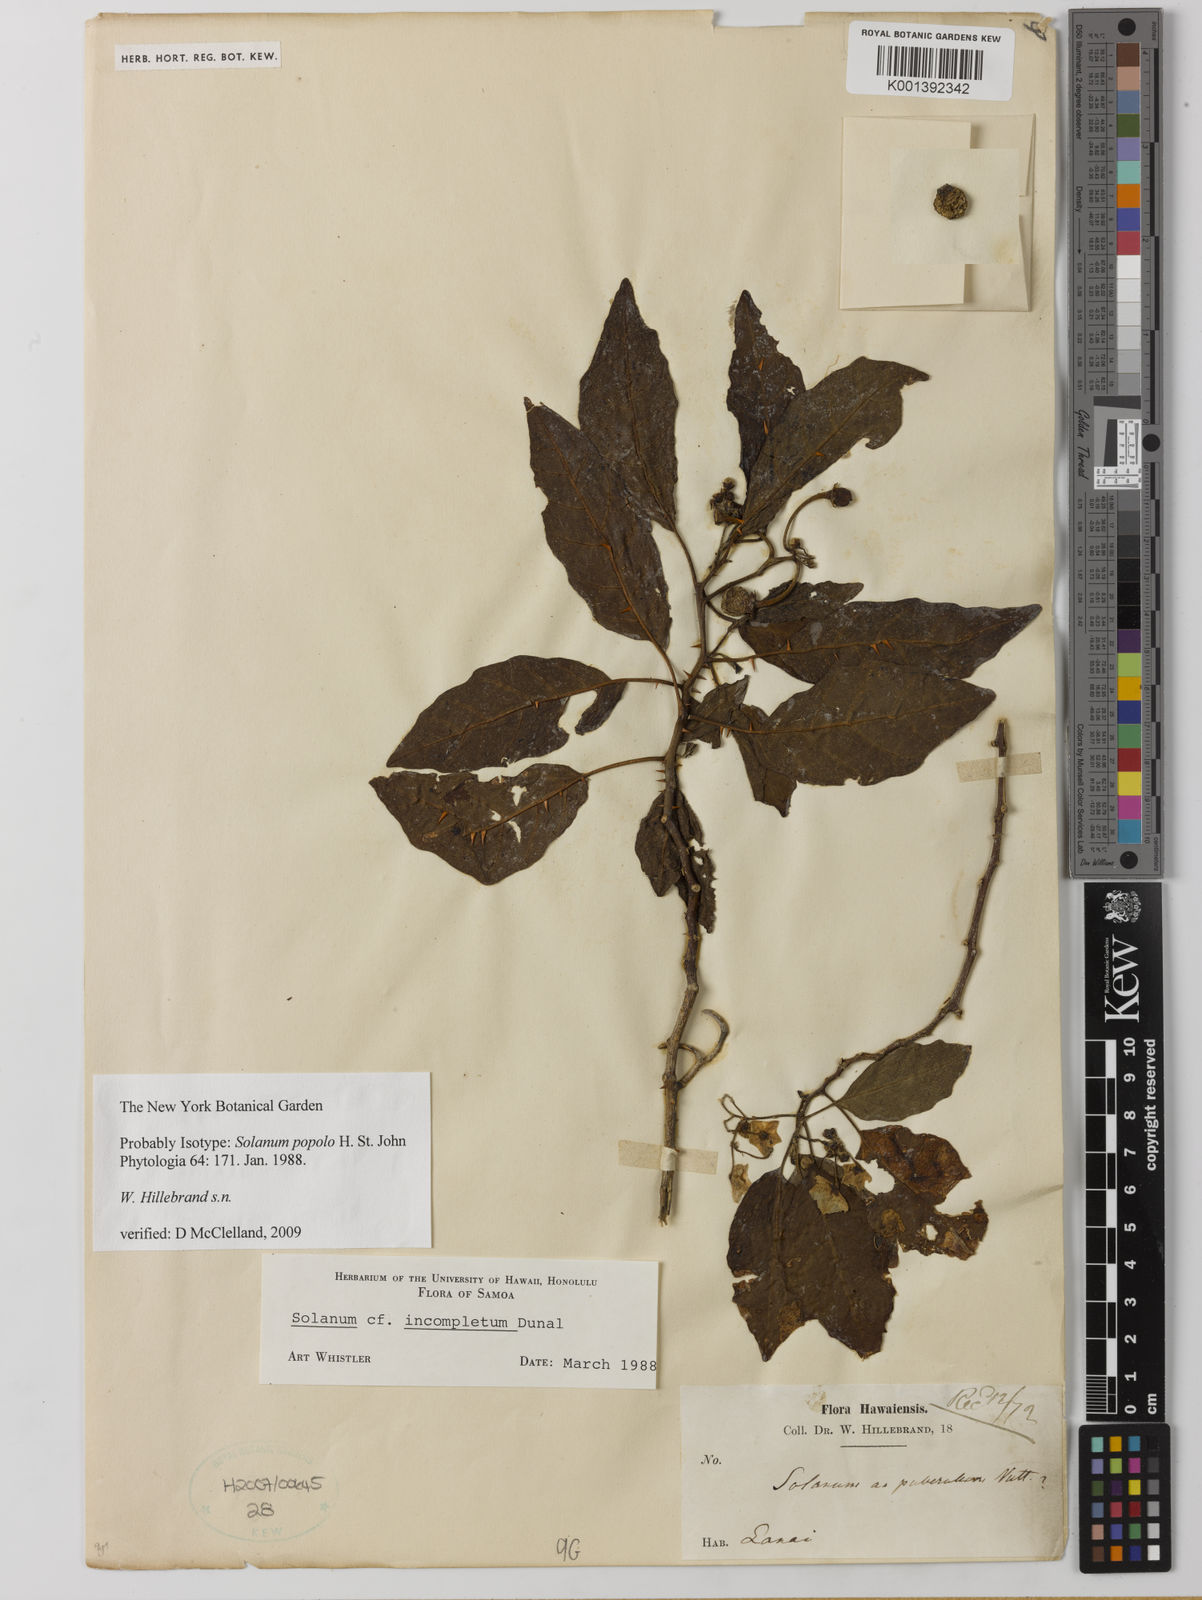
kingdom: Plantae
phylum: Tracheophyta
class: Magnoliopsida
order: Solanales
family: Solanaceae
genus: Solanum
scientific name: Solanum hillebrandii
